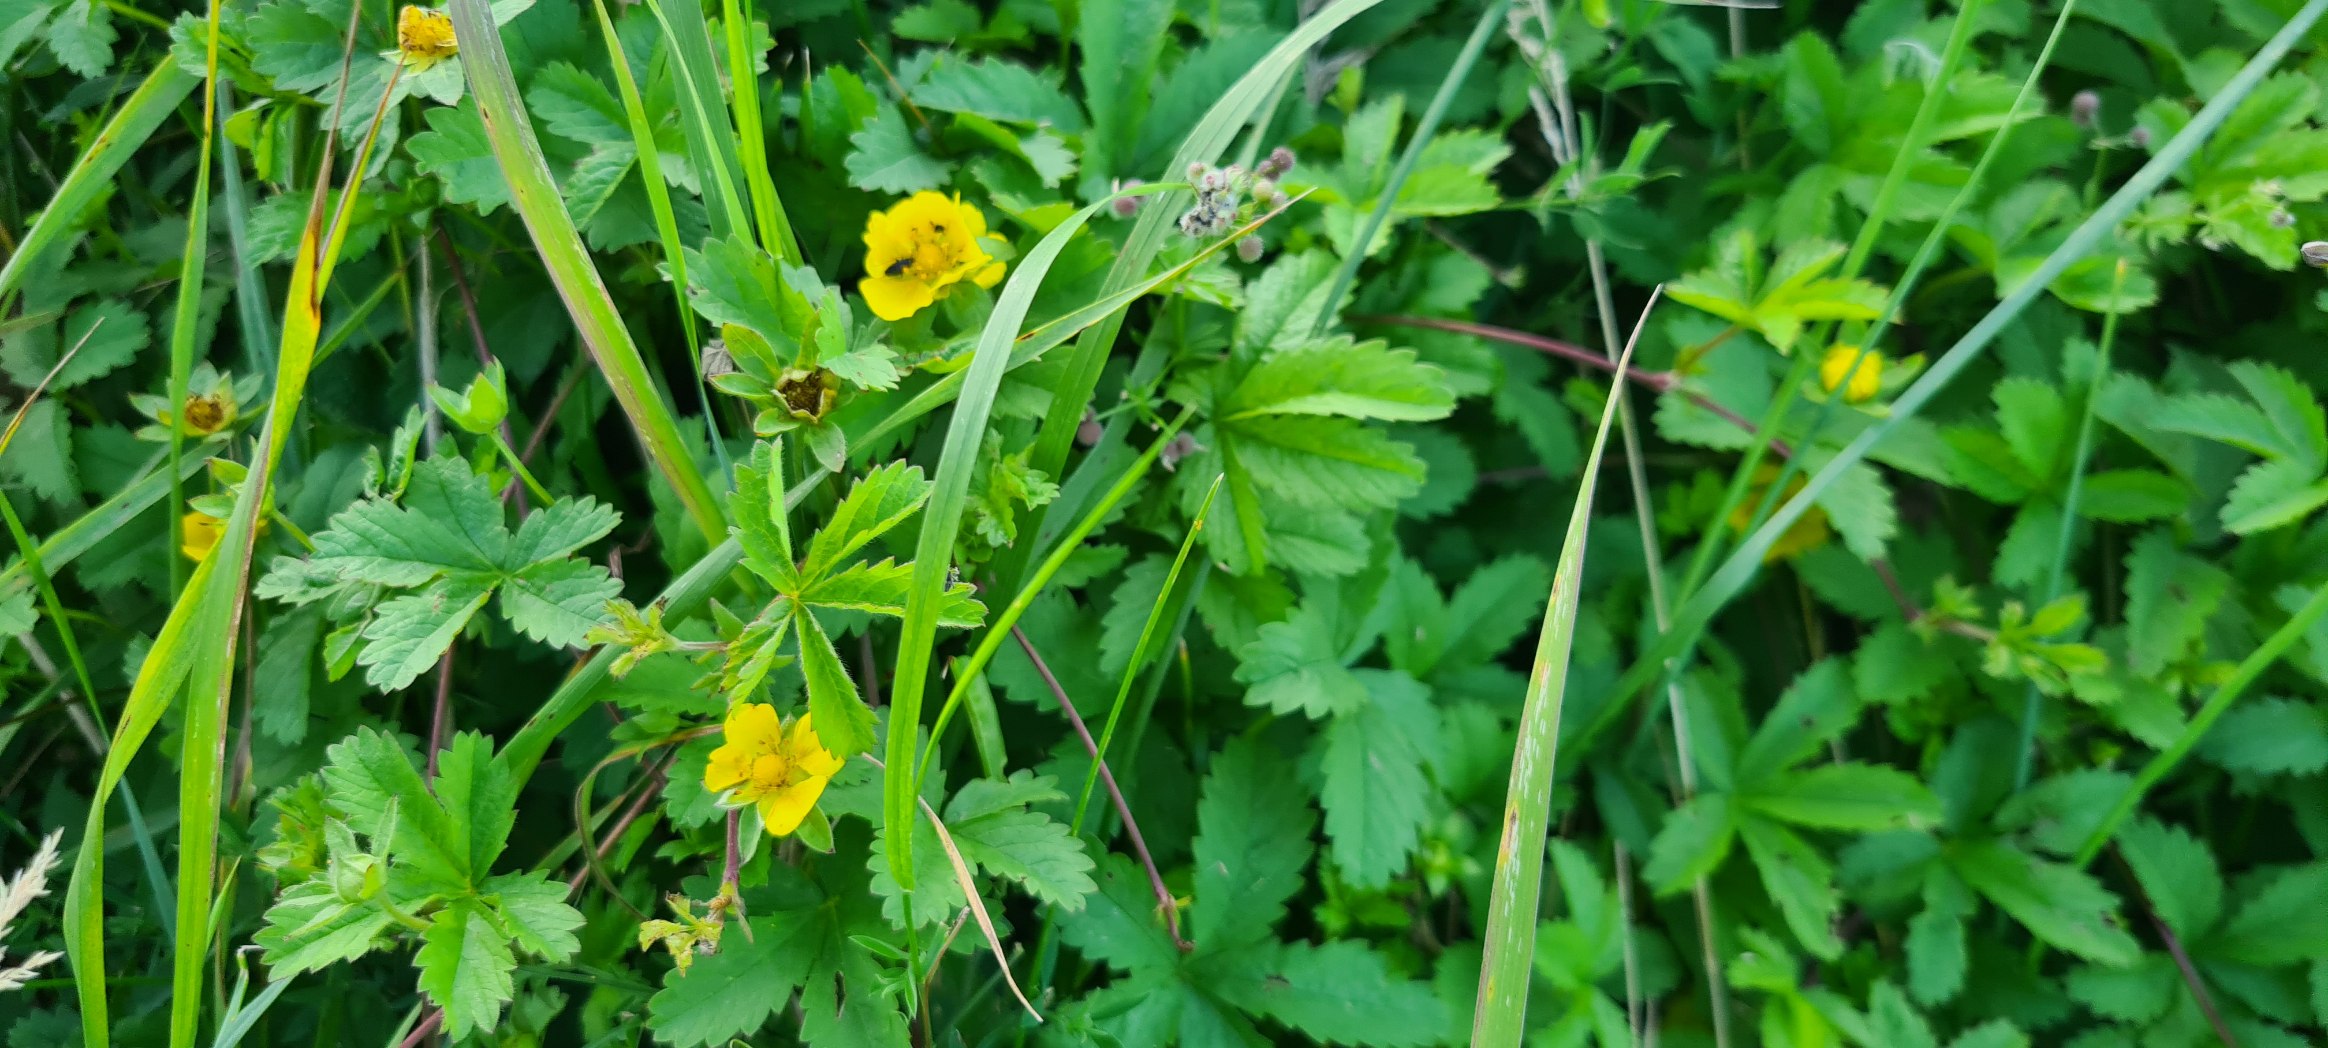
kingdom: Plantae
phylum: Tracheophyta
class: Magnoliopsida
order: Rosales
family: Rosaceae
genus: Potentilla
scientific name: Potentilla reptans
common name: Krybende potentil
